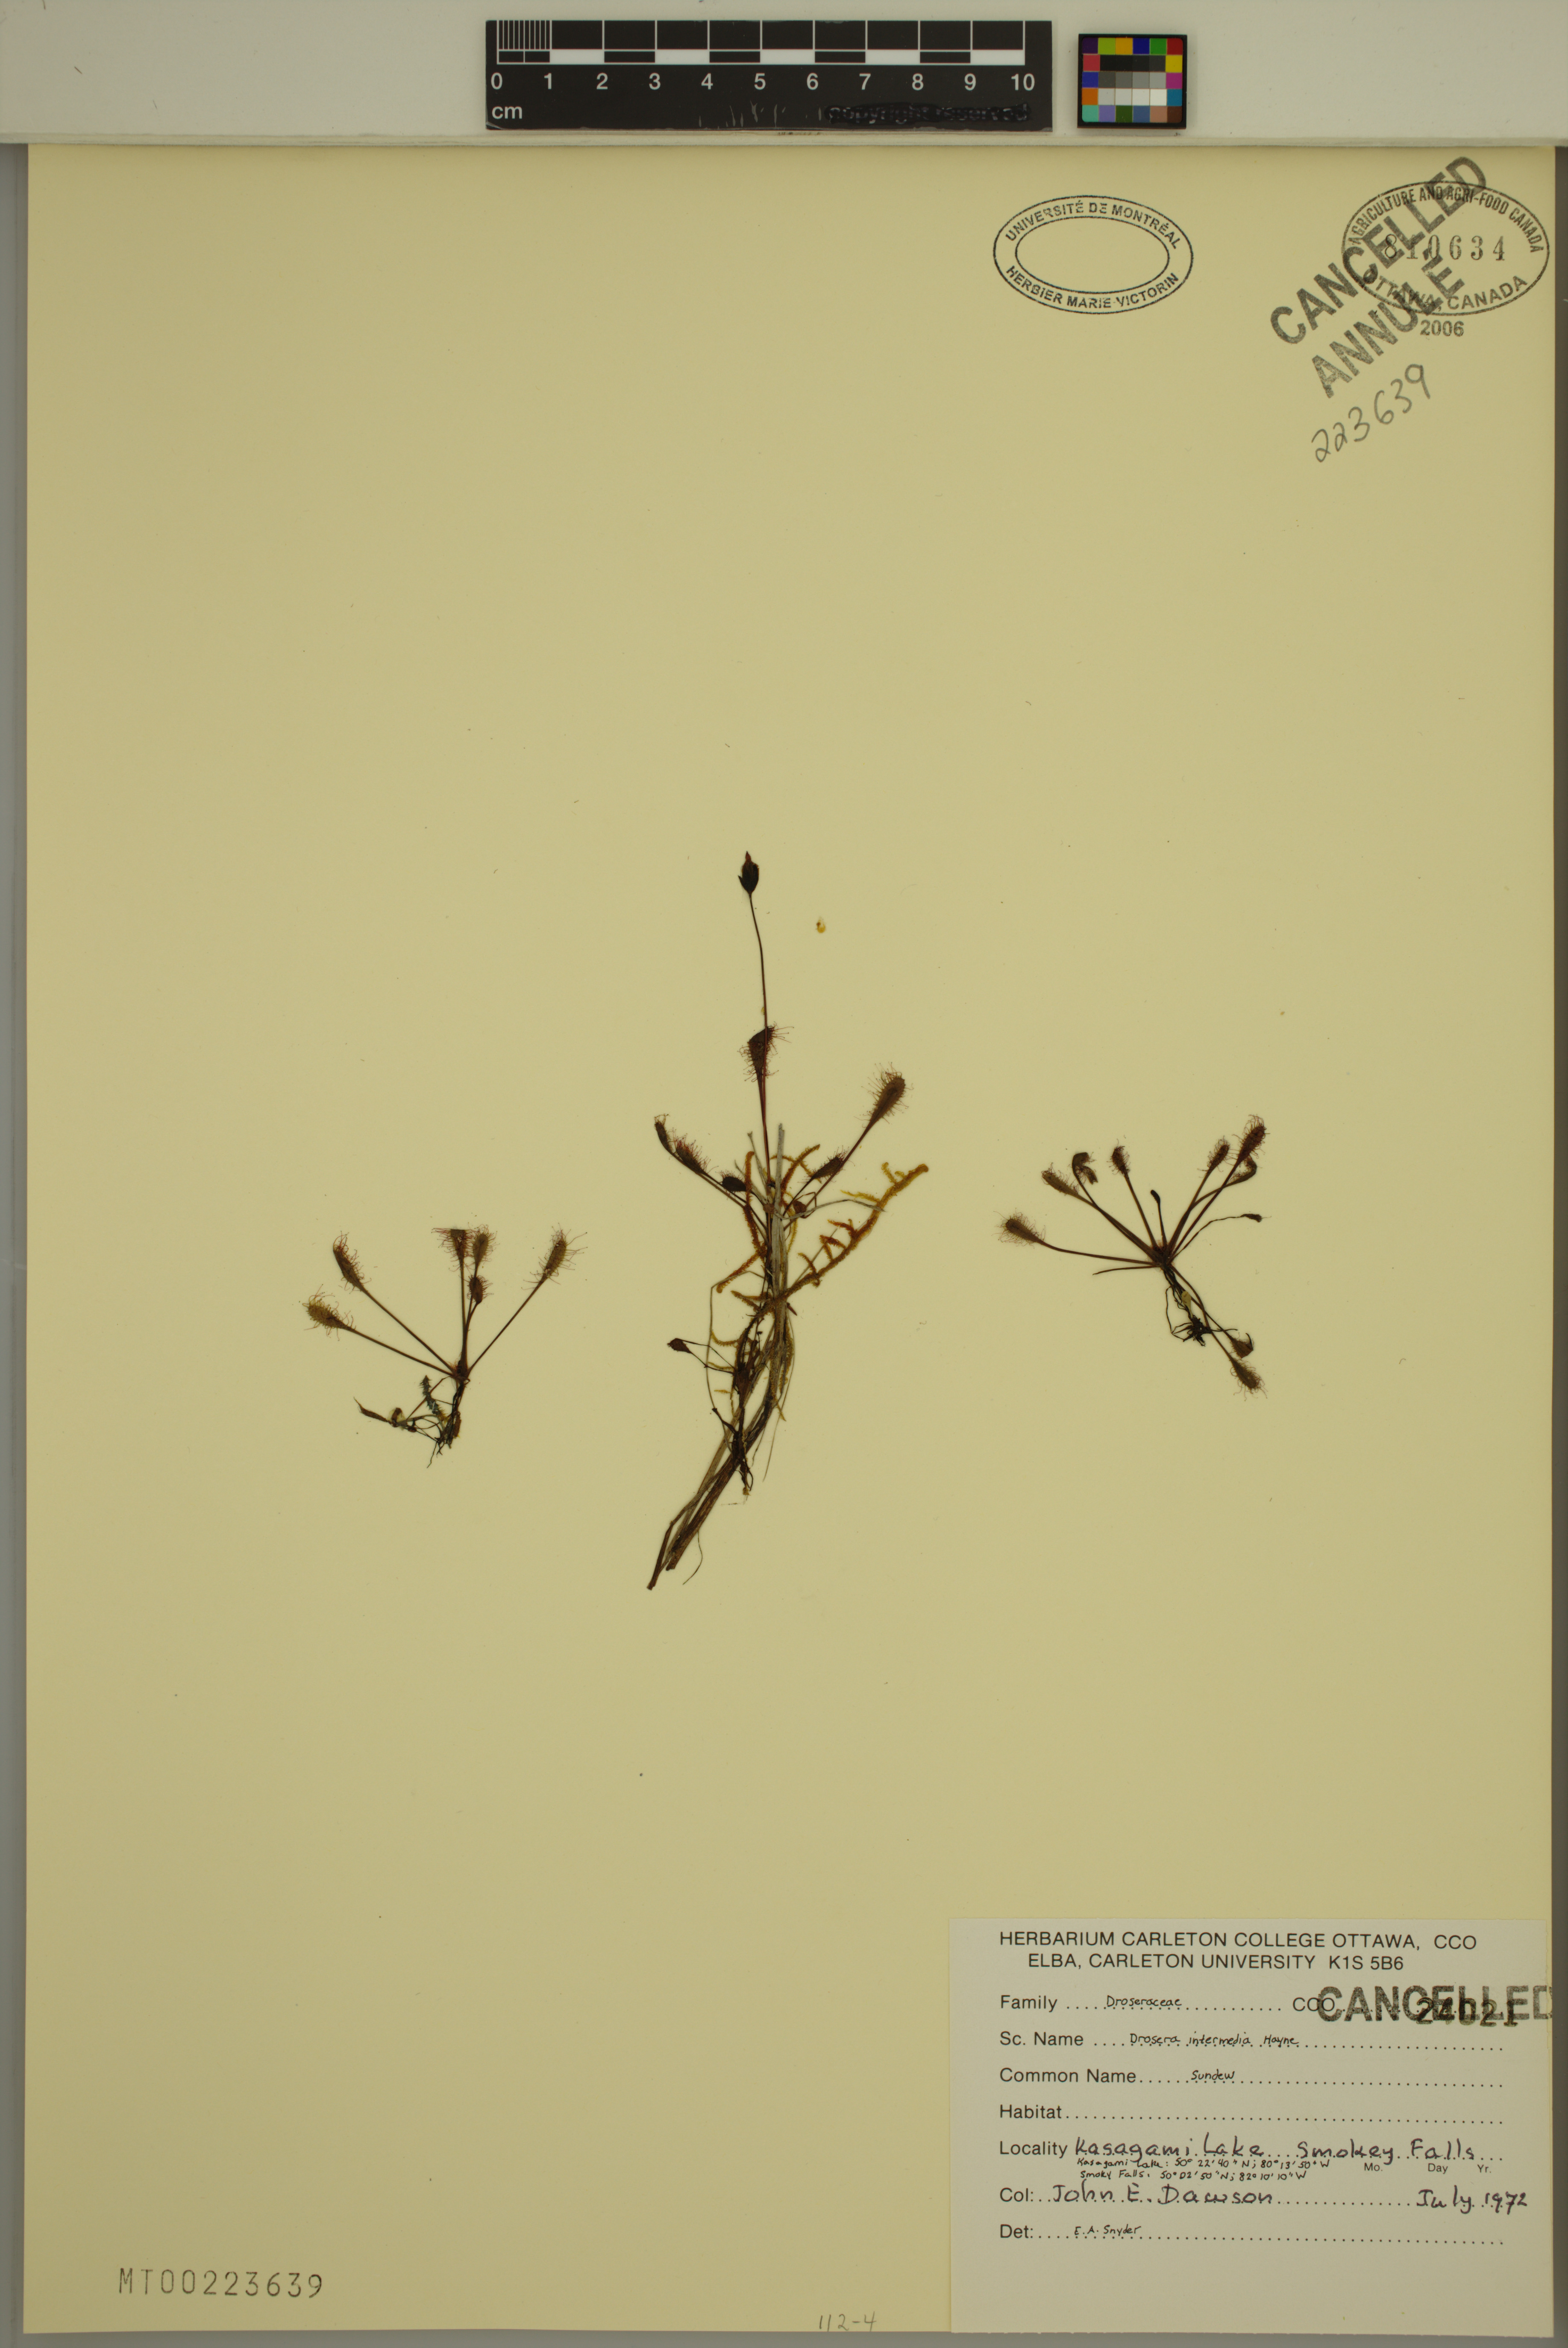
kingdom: Plantae
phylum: Tracheophyta
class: Magnoliopsida
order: Caryophyllales
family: Droseraceae
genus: Drosera
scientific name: Drosera intermedia
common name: Oblong-leaved sundew
